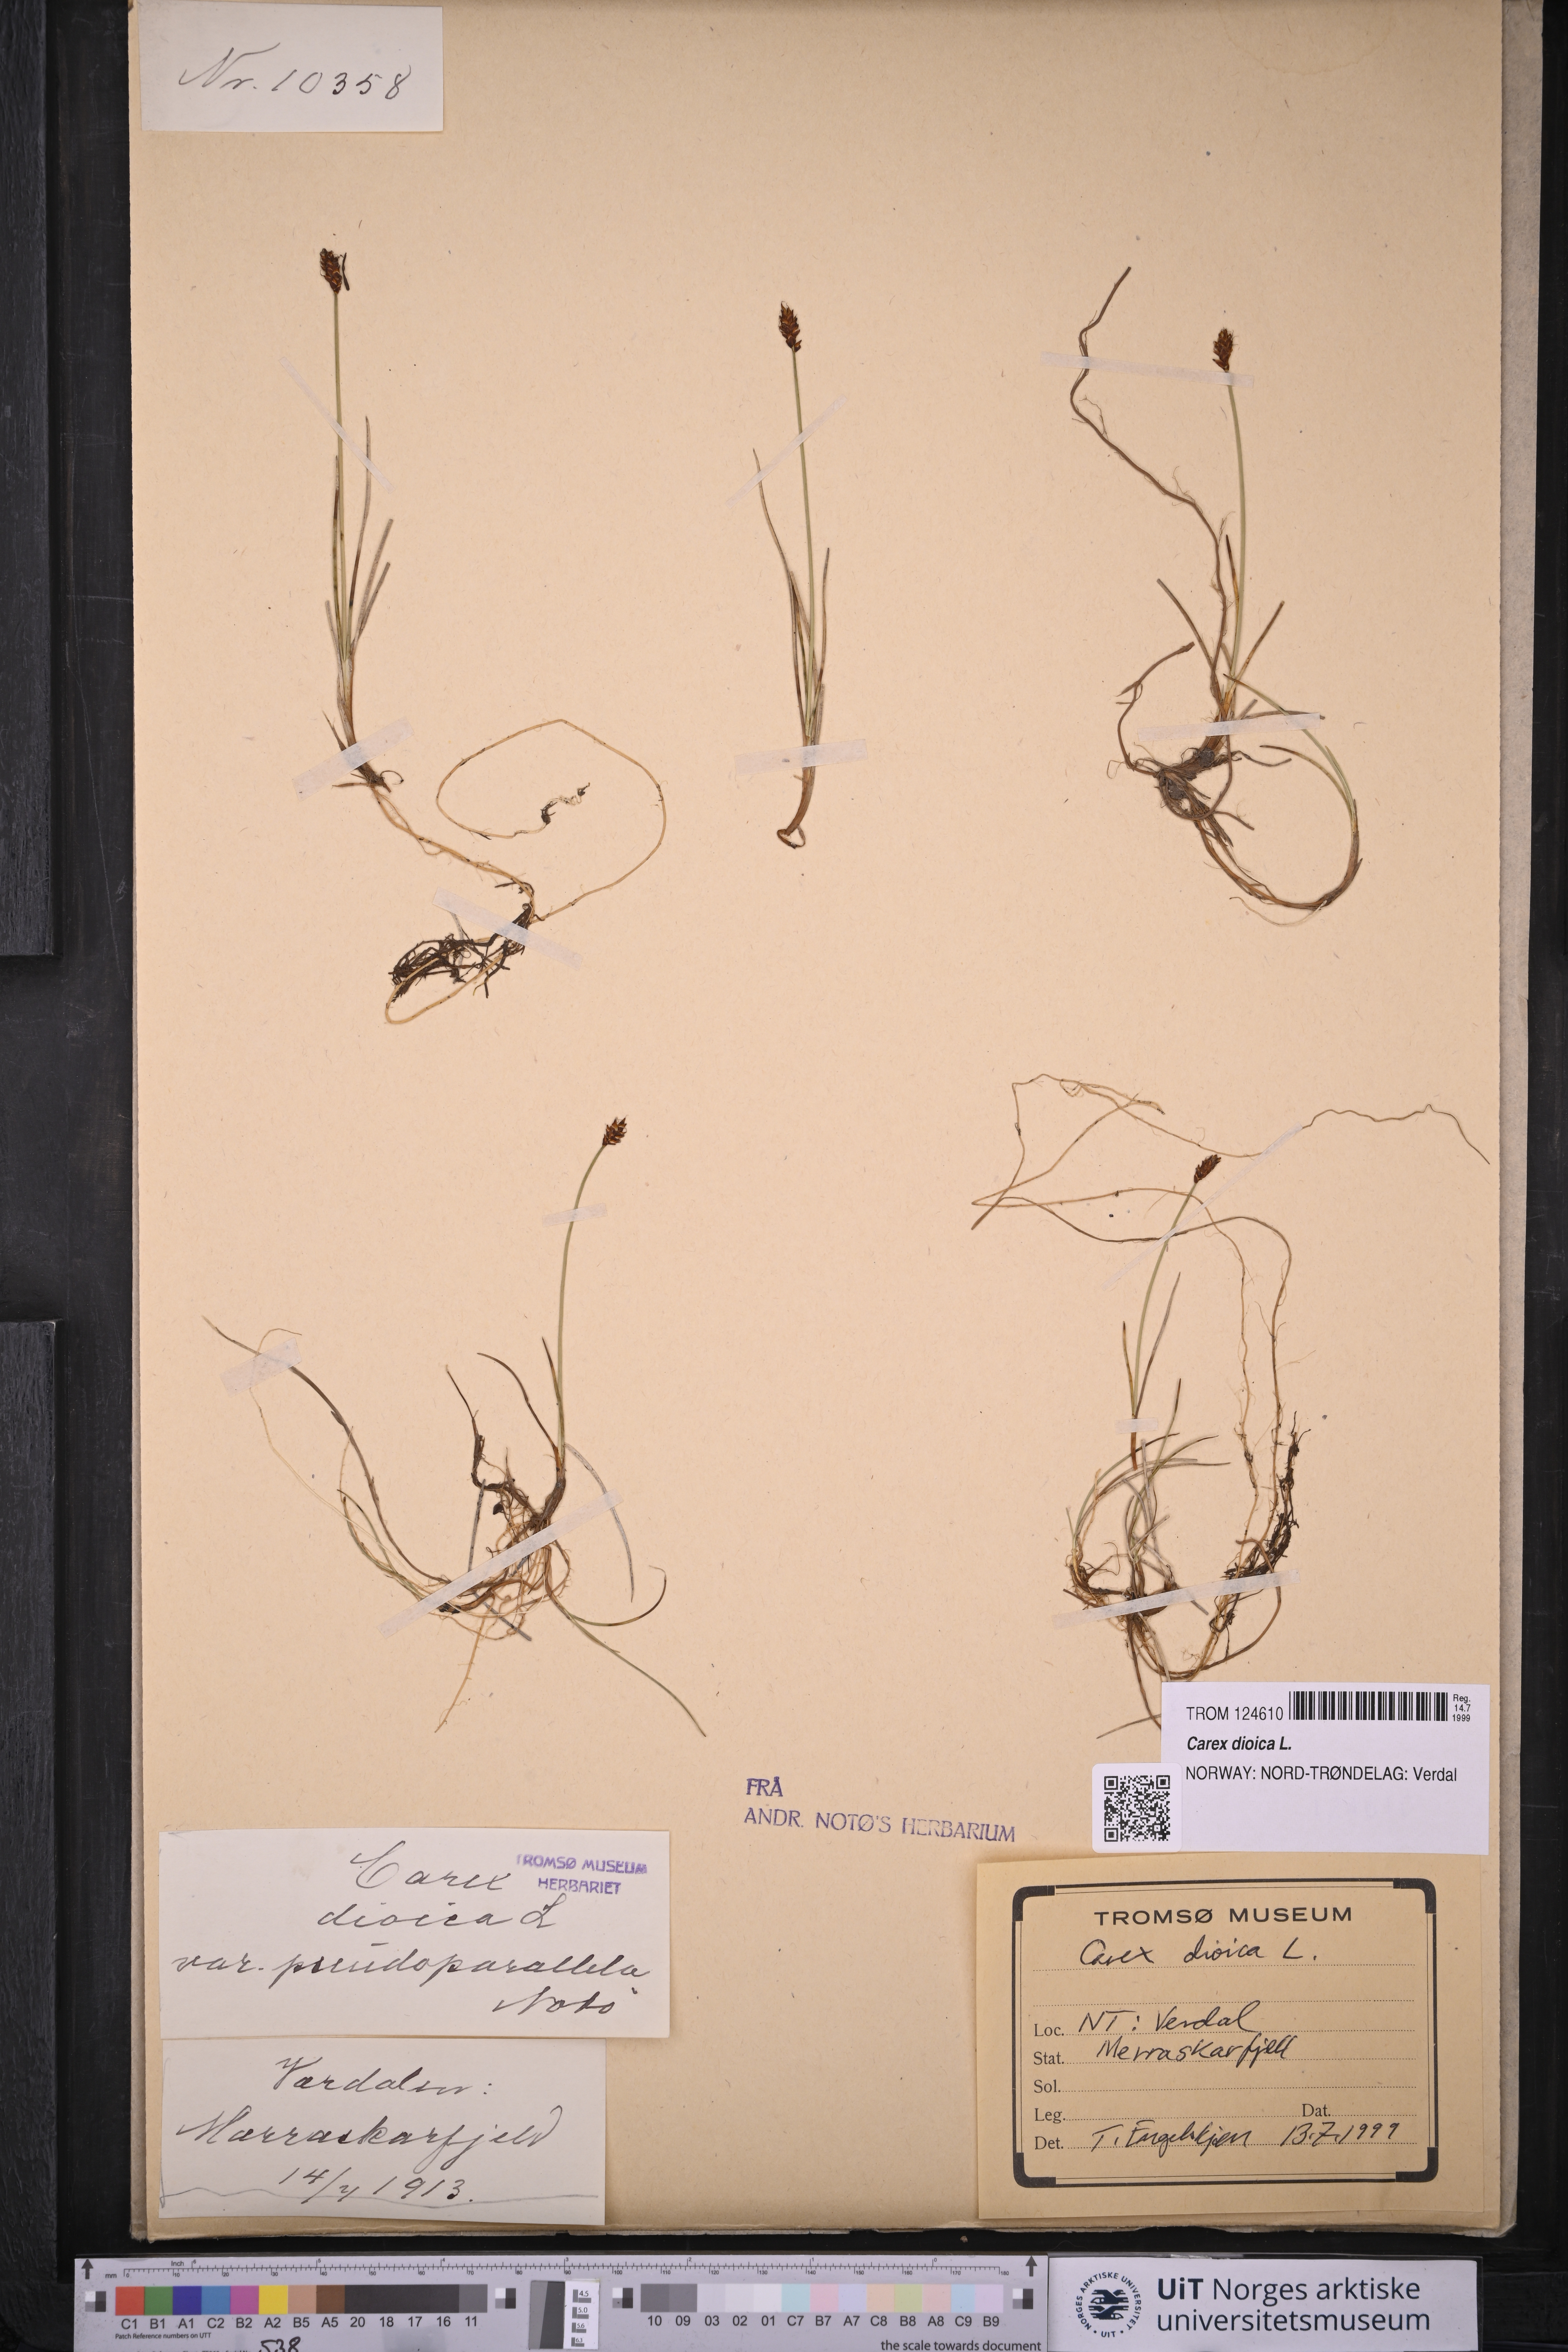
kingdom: Plantae
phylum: Tracheophyta
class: Liliopsida
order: Poales
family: Cyperaceae
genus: Carex
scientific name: Carex dioica
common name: Dioecious sedge
